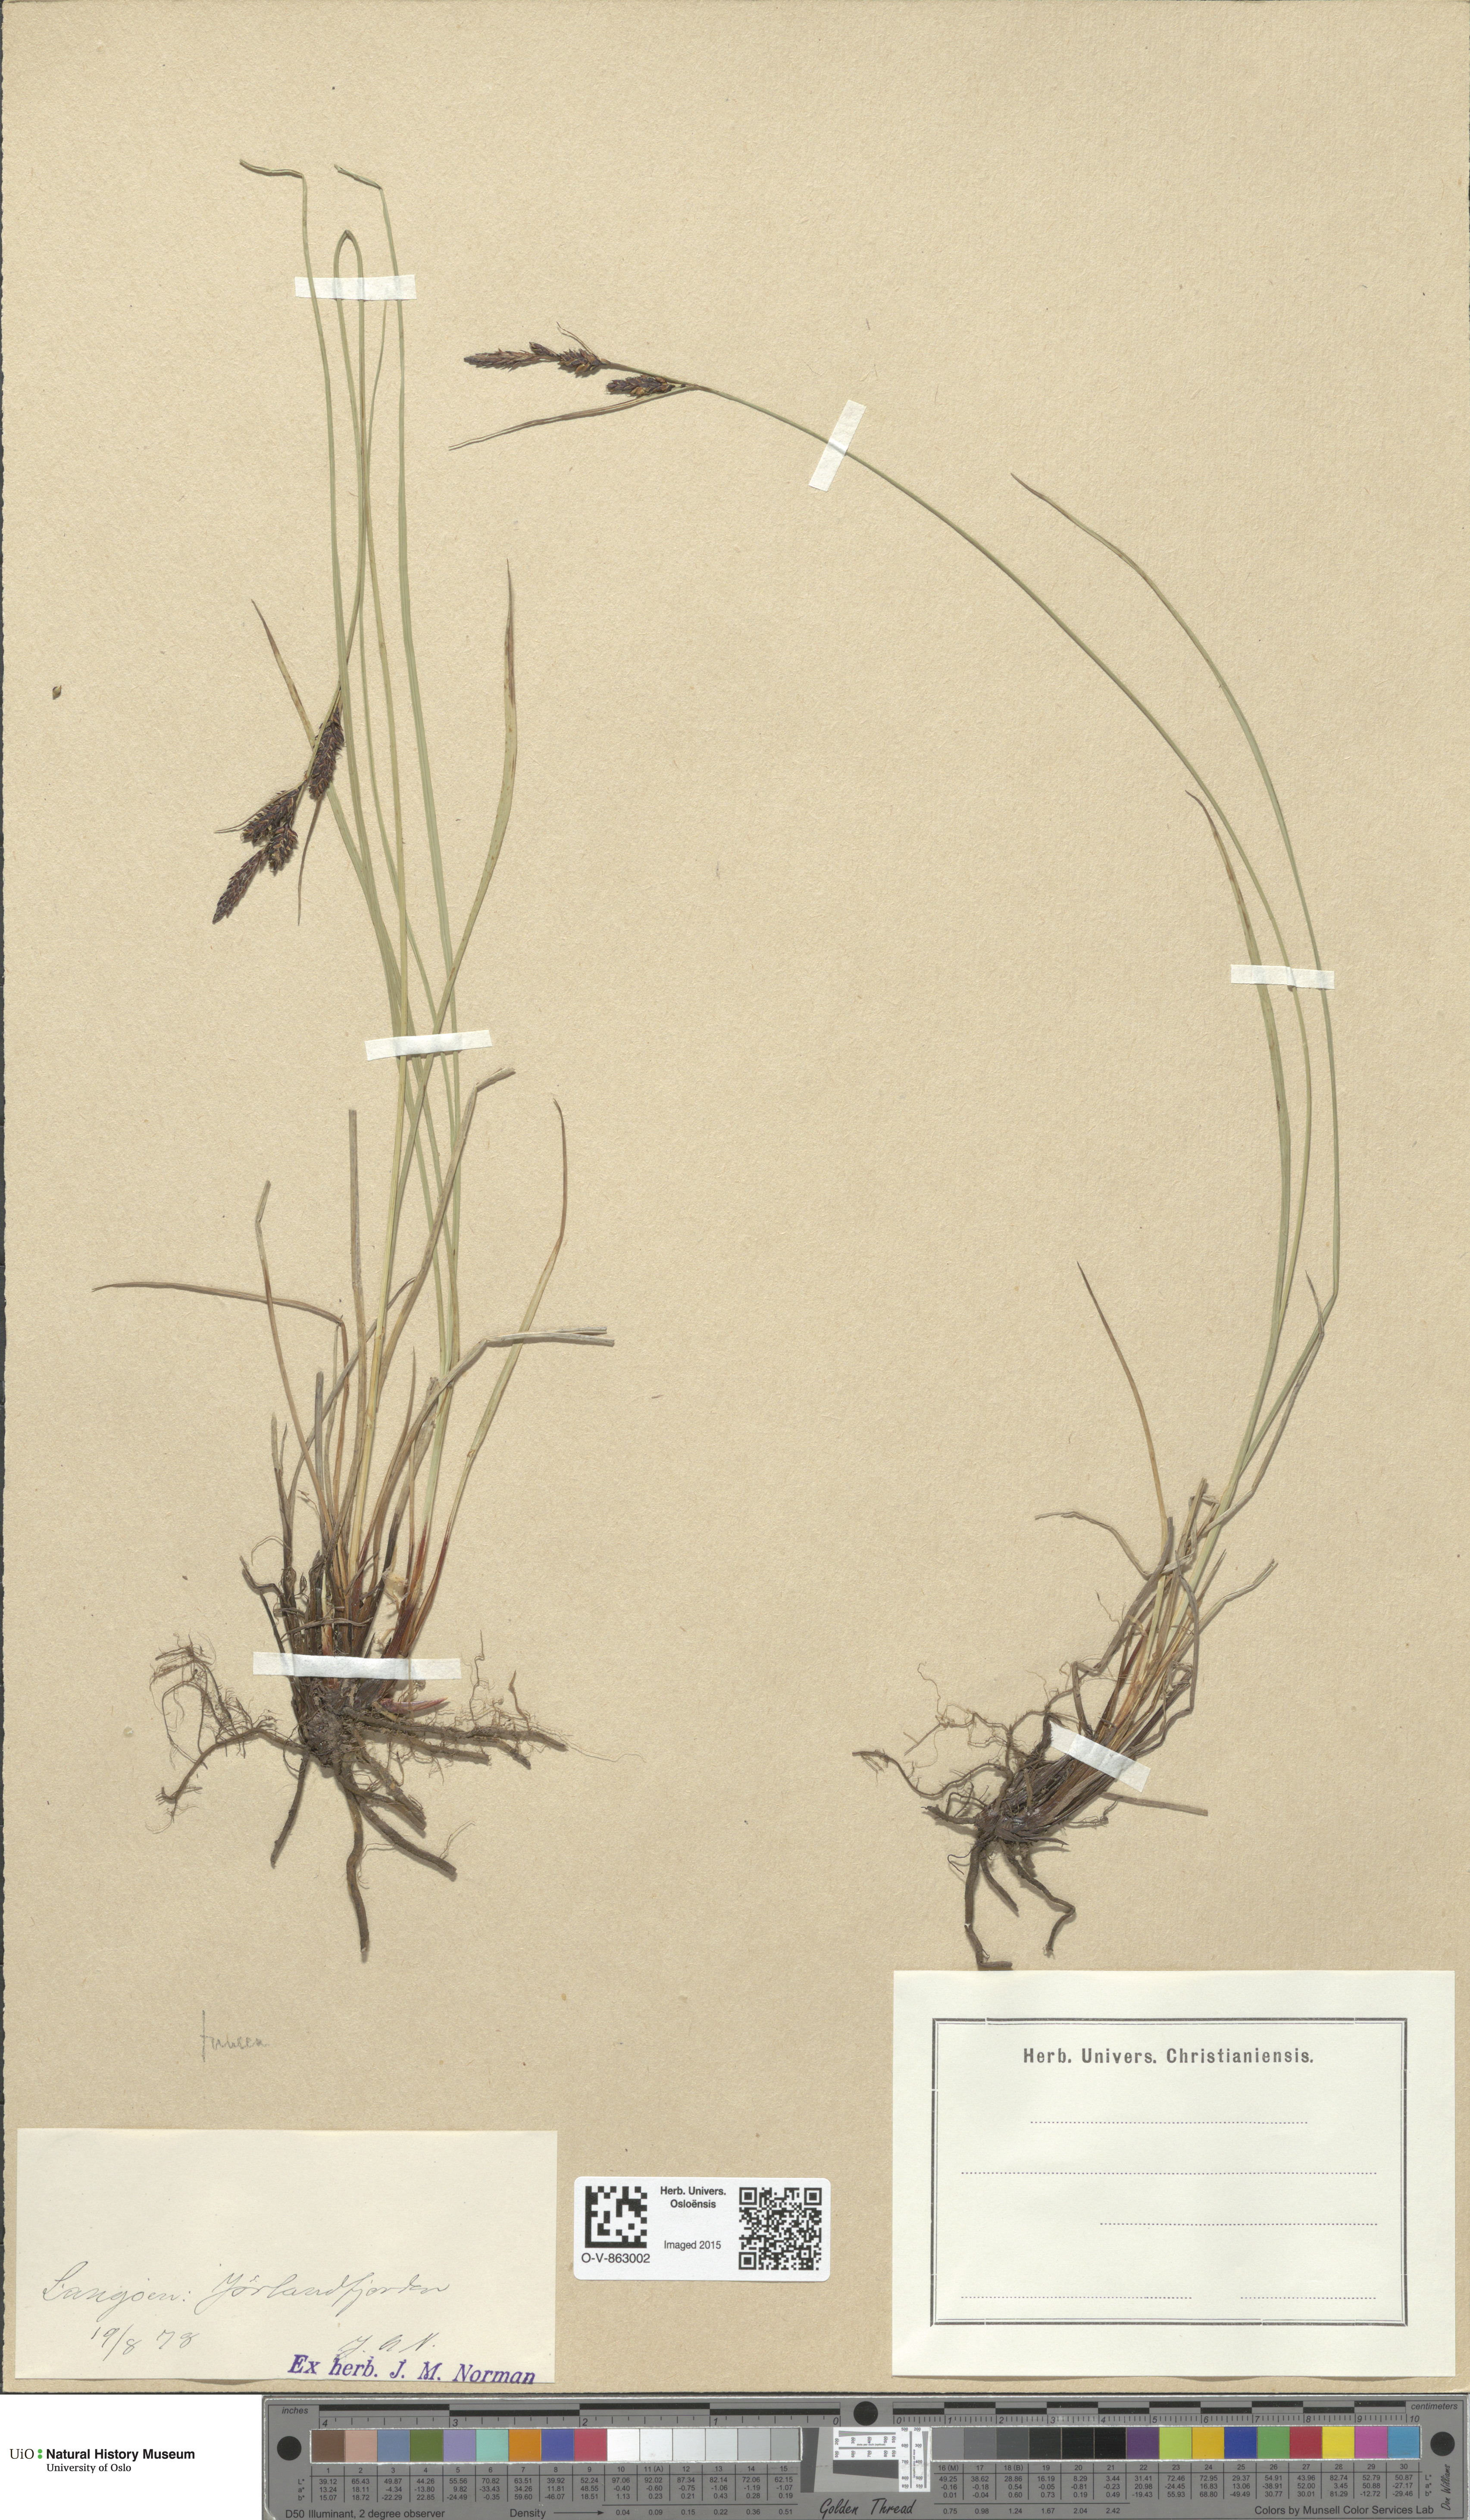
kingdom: Plantae
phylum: Tracheophyta
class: Liliopsida
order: Poales
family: Cyperaceae
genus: Carex
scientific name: Carex nigra
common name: Common sedge
